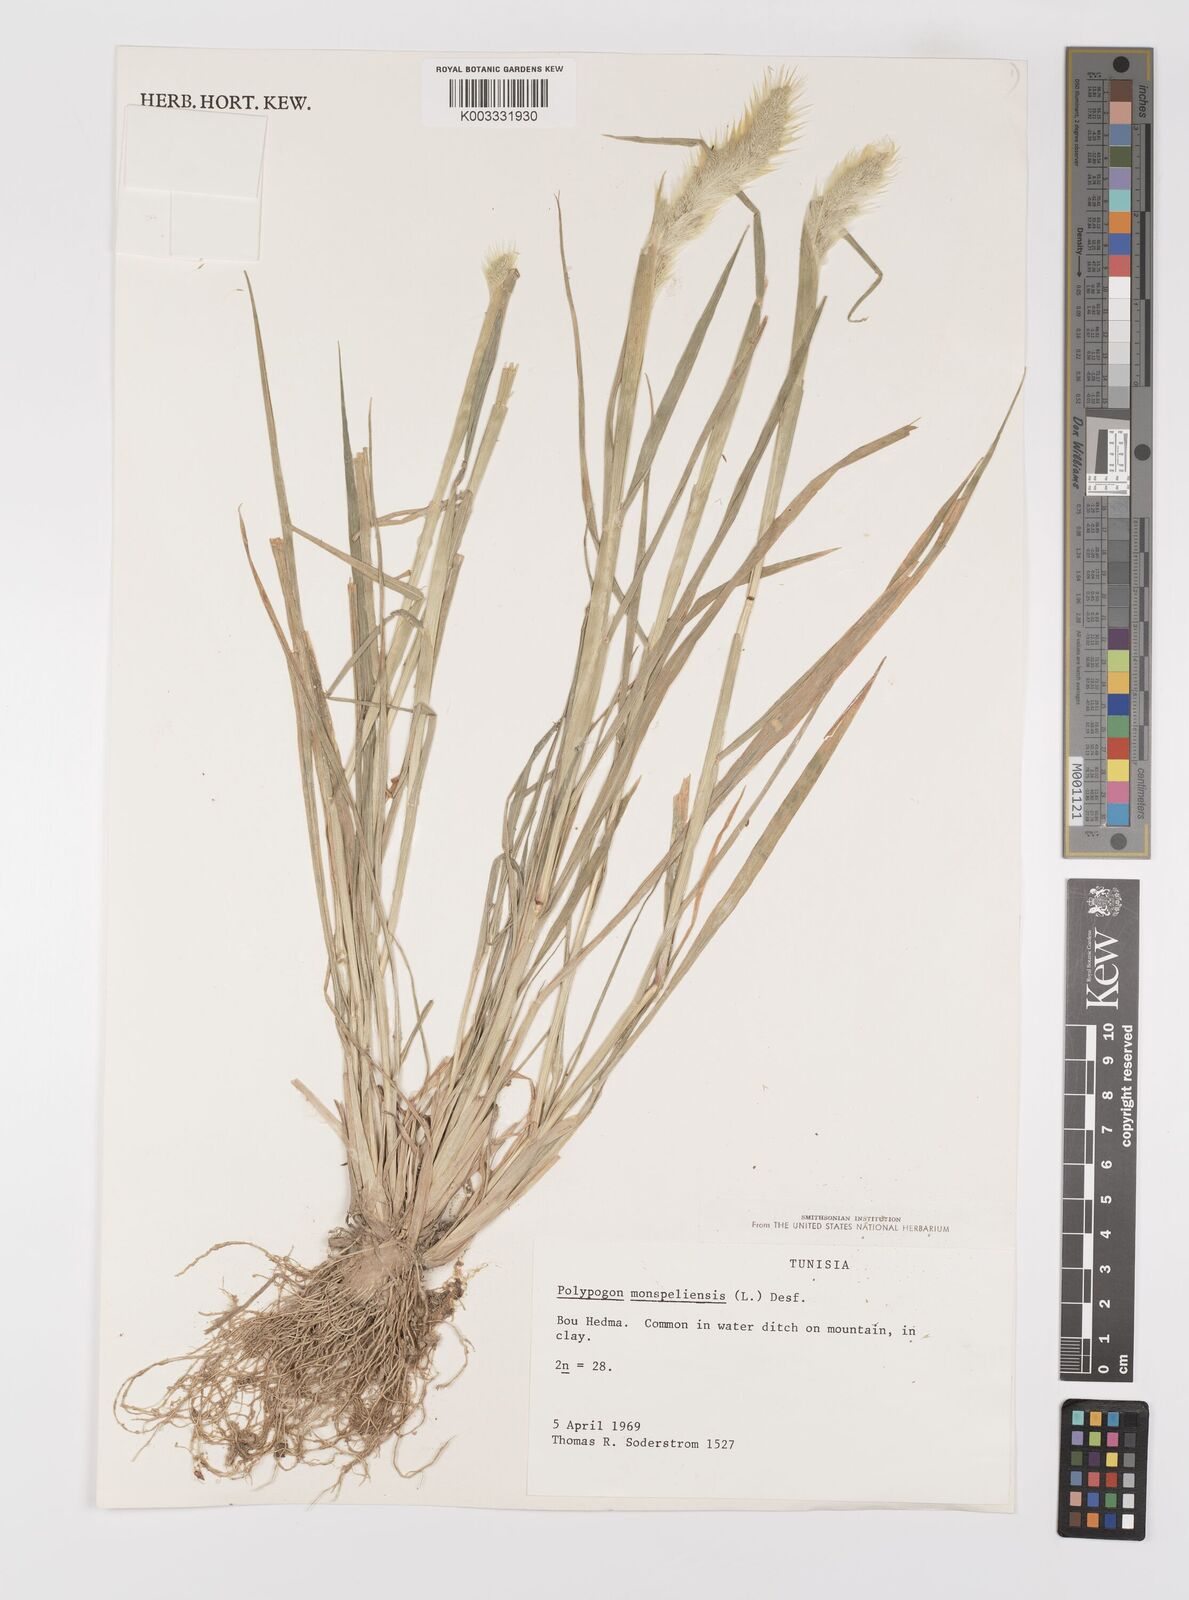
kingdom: Plantae
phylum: Tracheophyta
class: Liliopsida
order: Poales
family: Poaceae
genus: Polypogon
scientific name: Polypogon monspeliensis
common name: Annual rabbitsfoot grass
